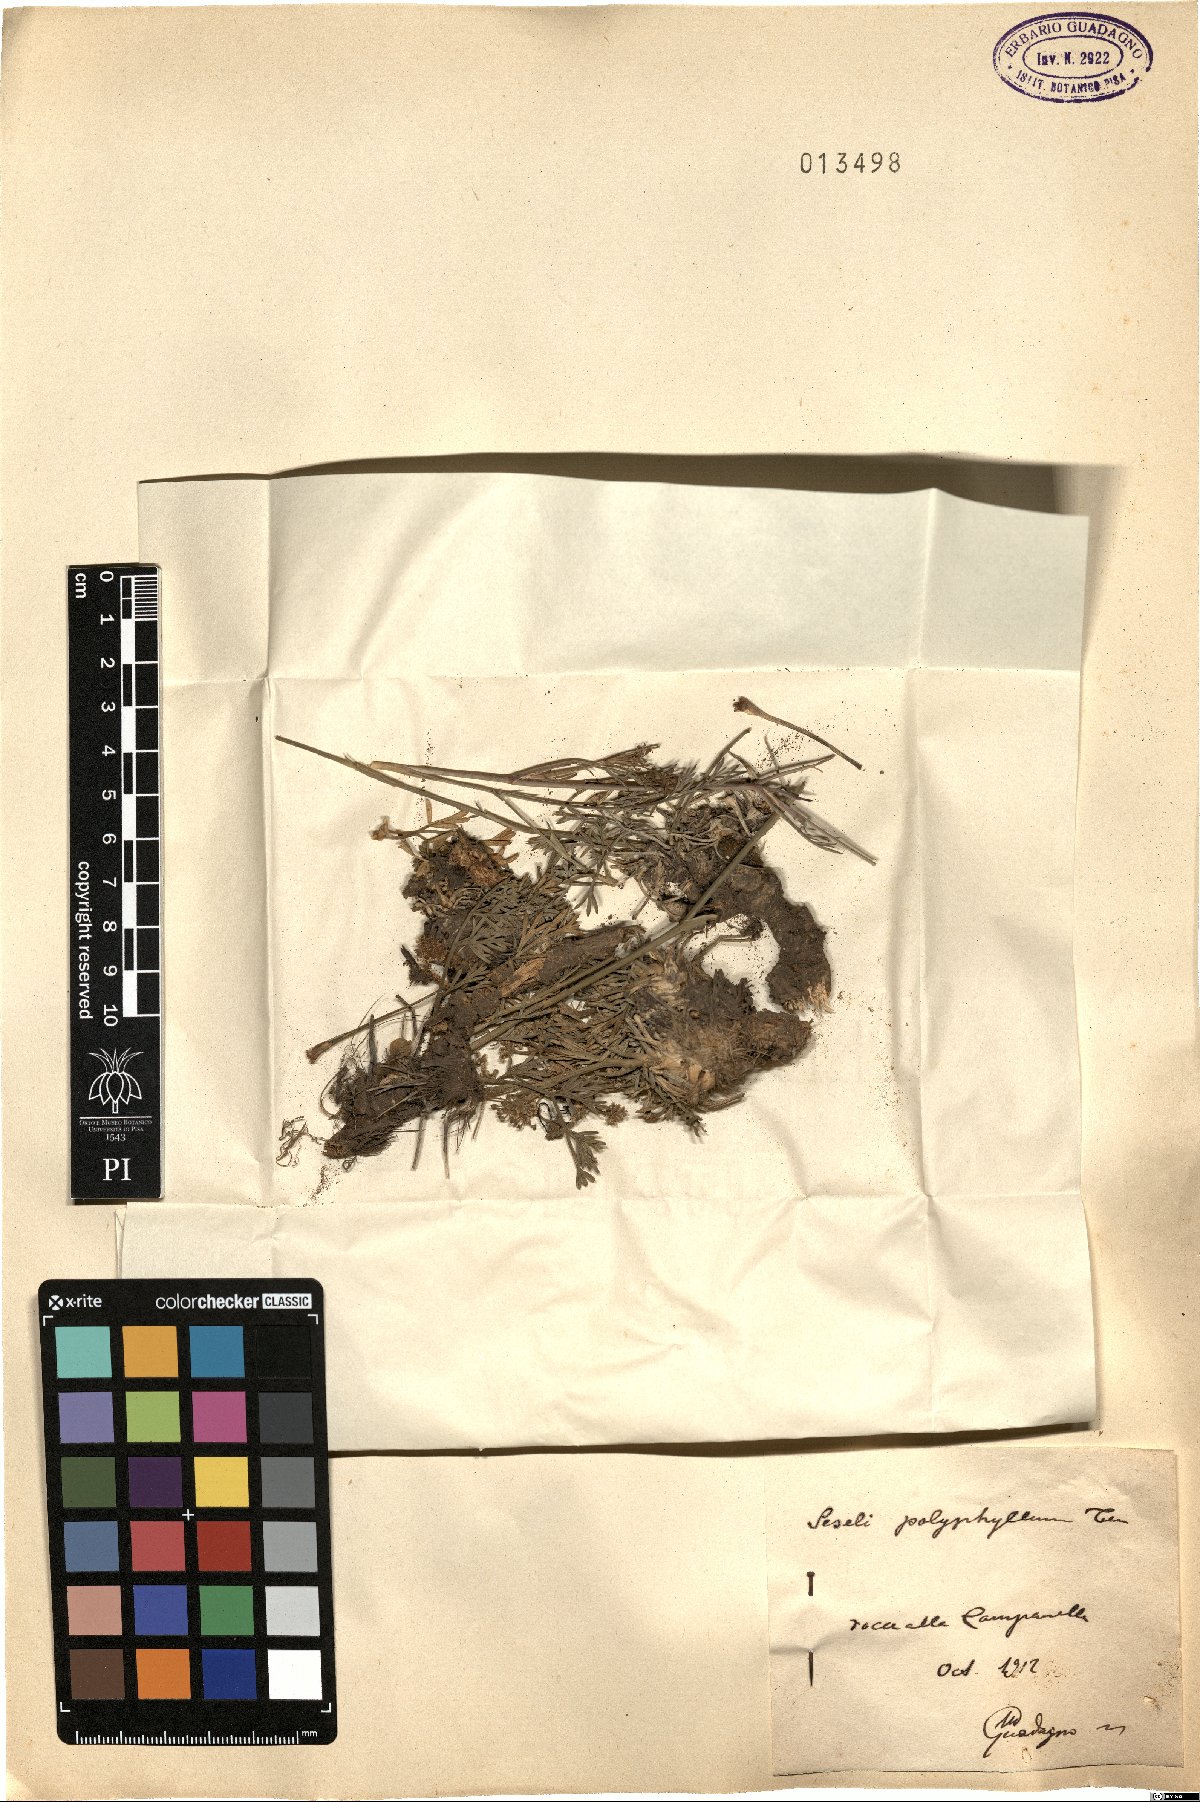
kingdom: Plantae
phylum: Tracheophyta
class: Magnoliopsida
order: Apiales
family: Apiaceae
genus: Seseli
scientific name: Seseli polyphyllum
